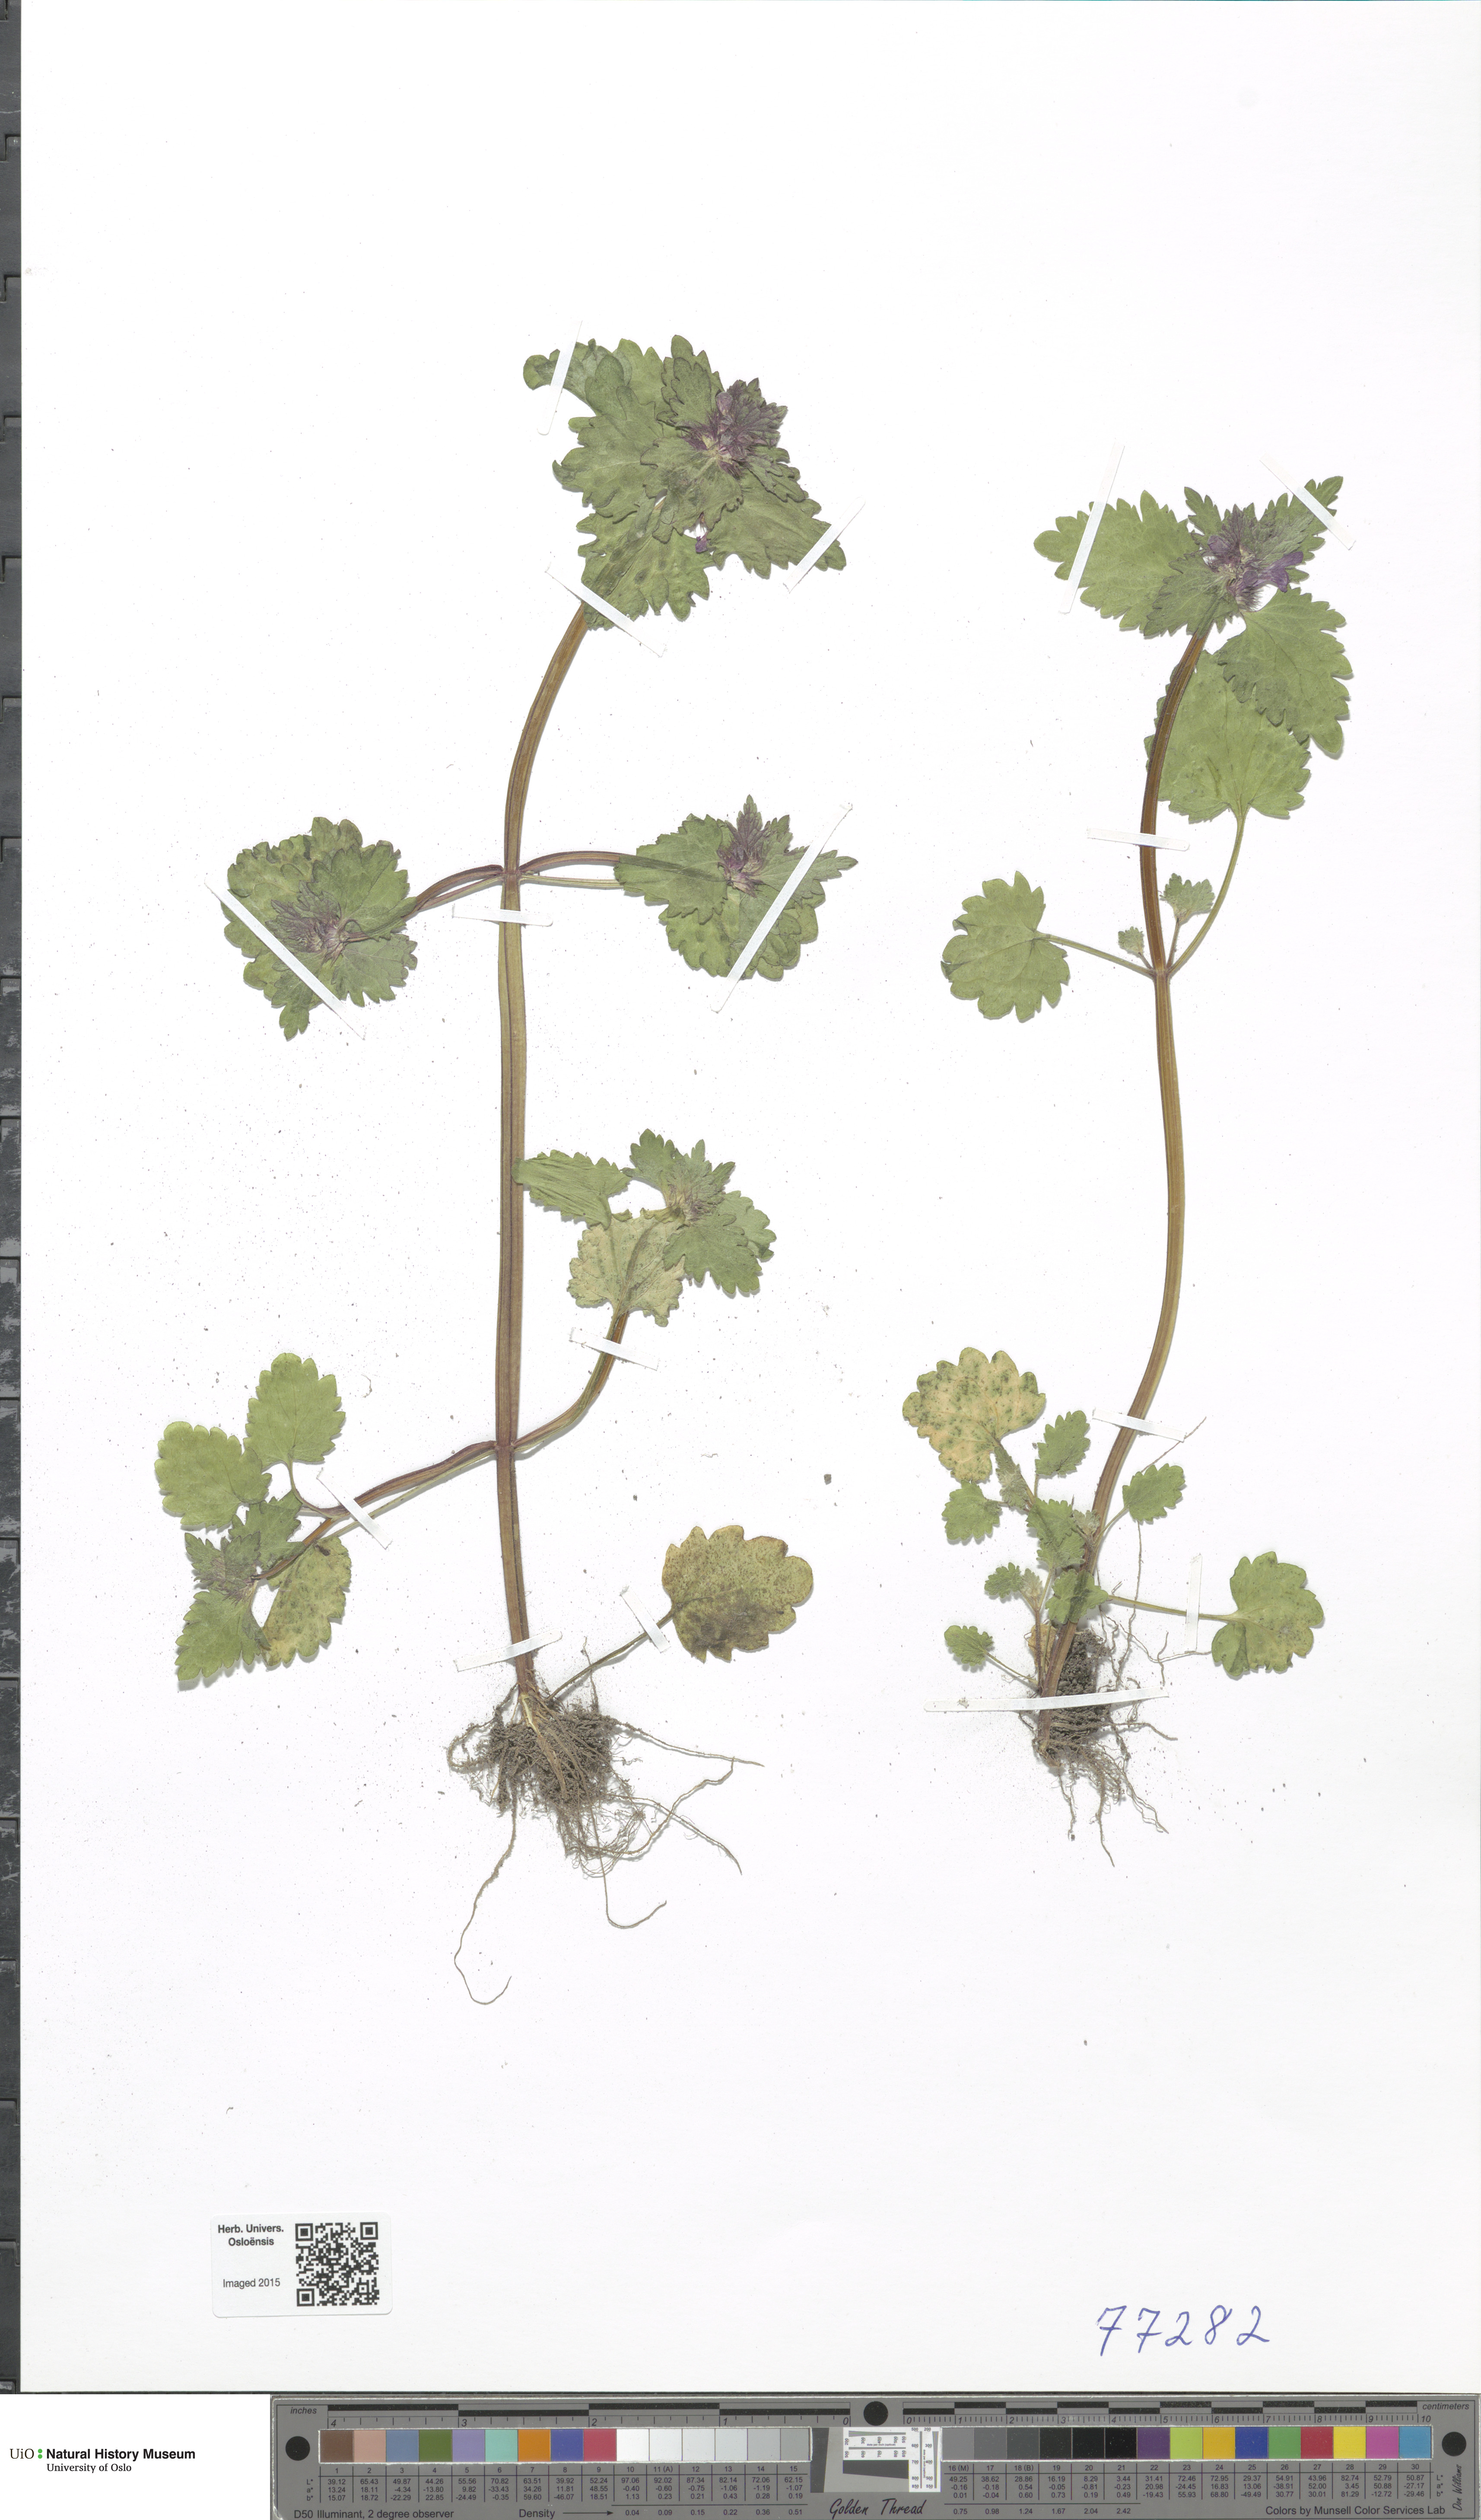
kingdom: Plantae
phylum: Tracheophyta
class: Magnoliopsida
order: Lamiales
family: Lamiaceae
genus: Lamium
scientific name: Lamium hybridum
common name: Cut-leaved dead-nettle
